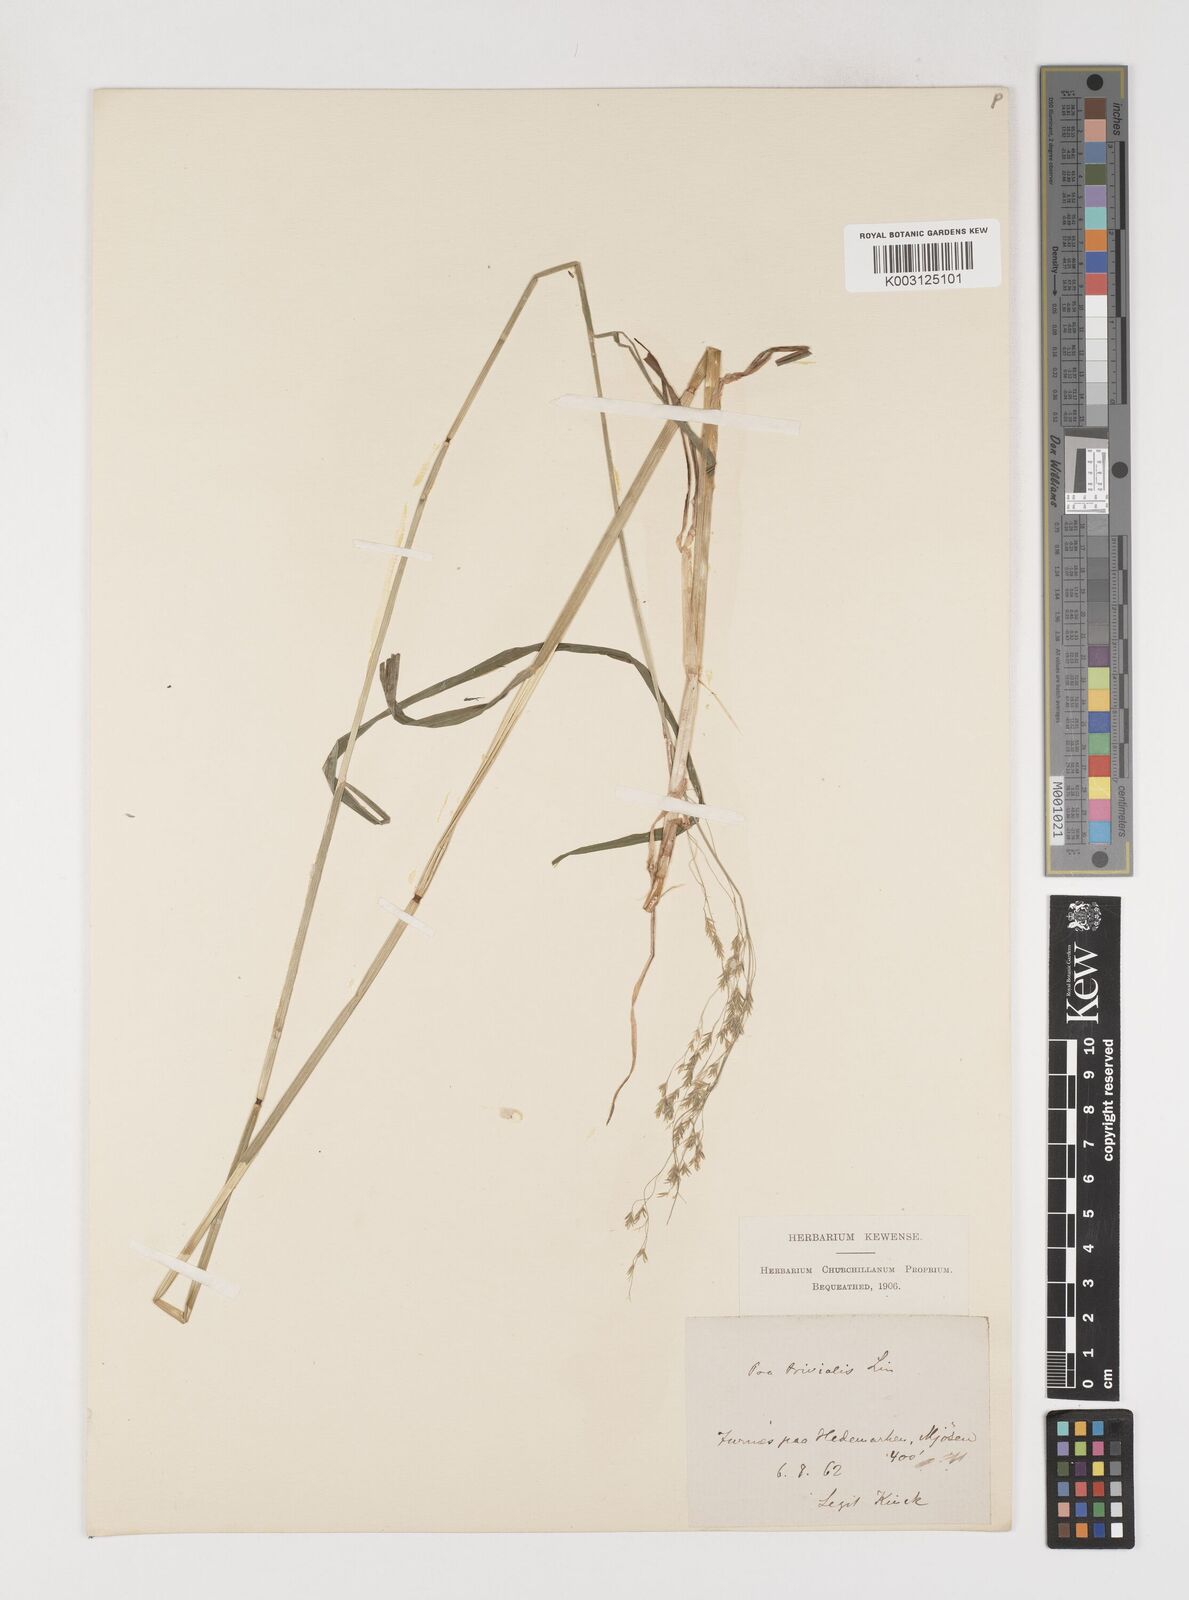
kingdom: Plantae
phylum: Tracheophyta
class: Liliopsida
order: Poales
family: Poaceae
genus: Poa
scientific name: Poa trivialis
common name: Rough bluegrass
